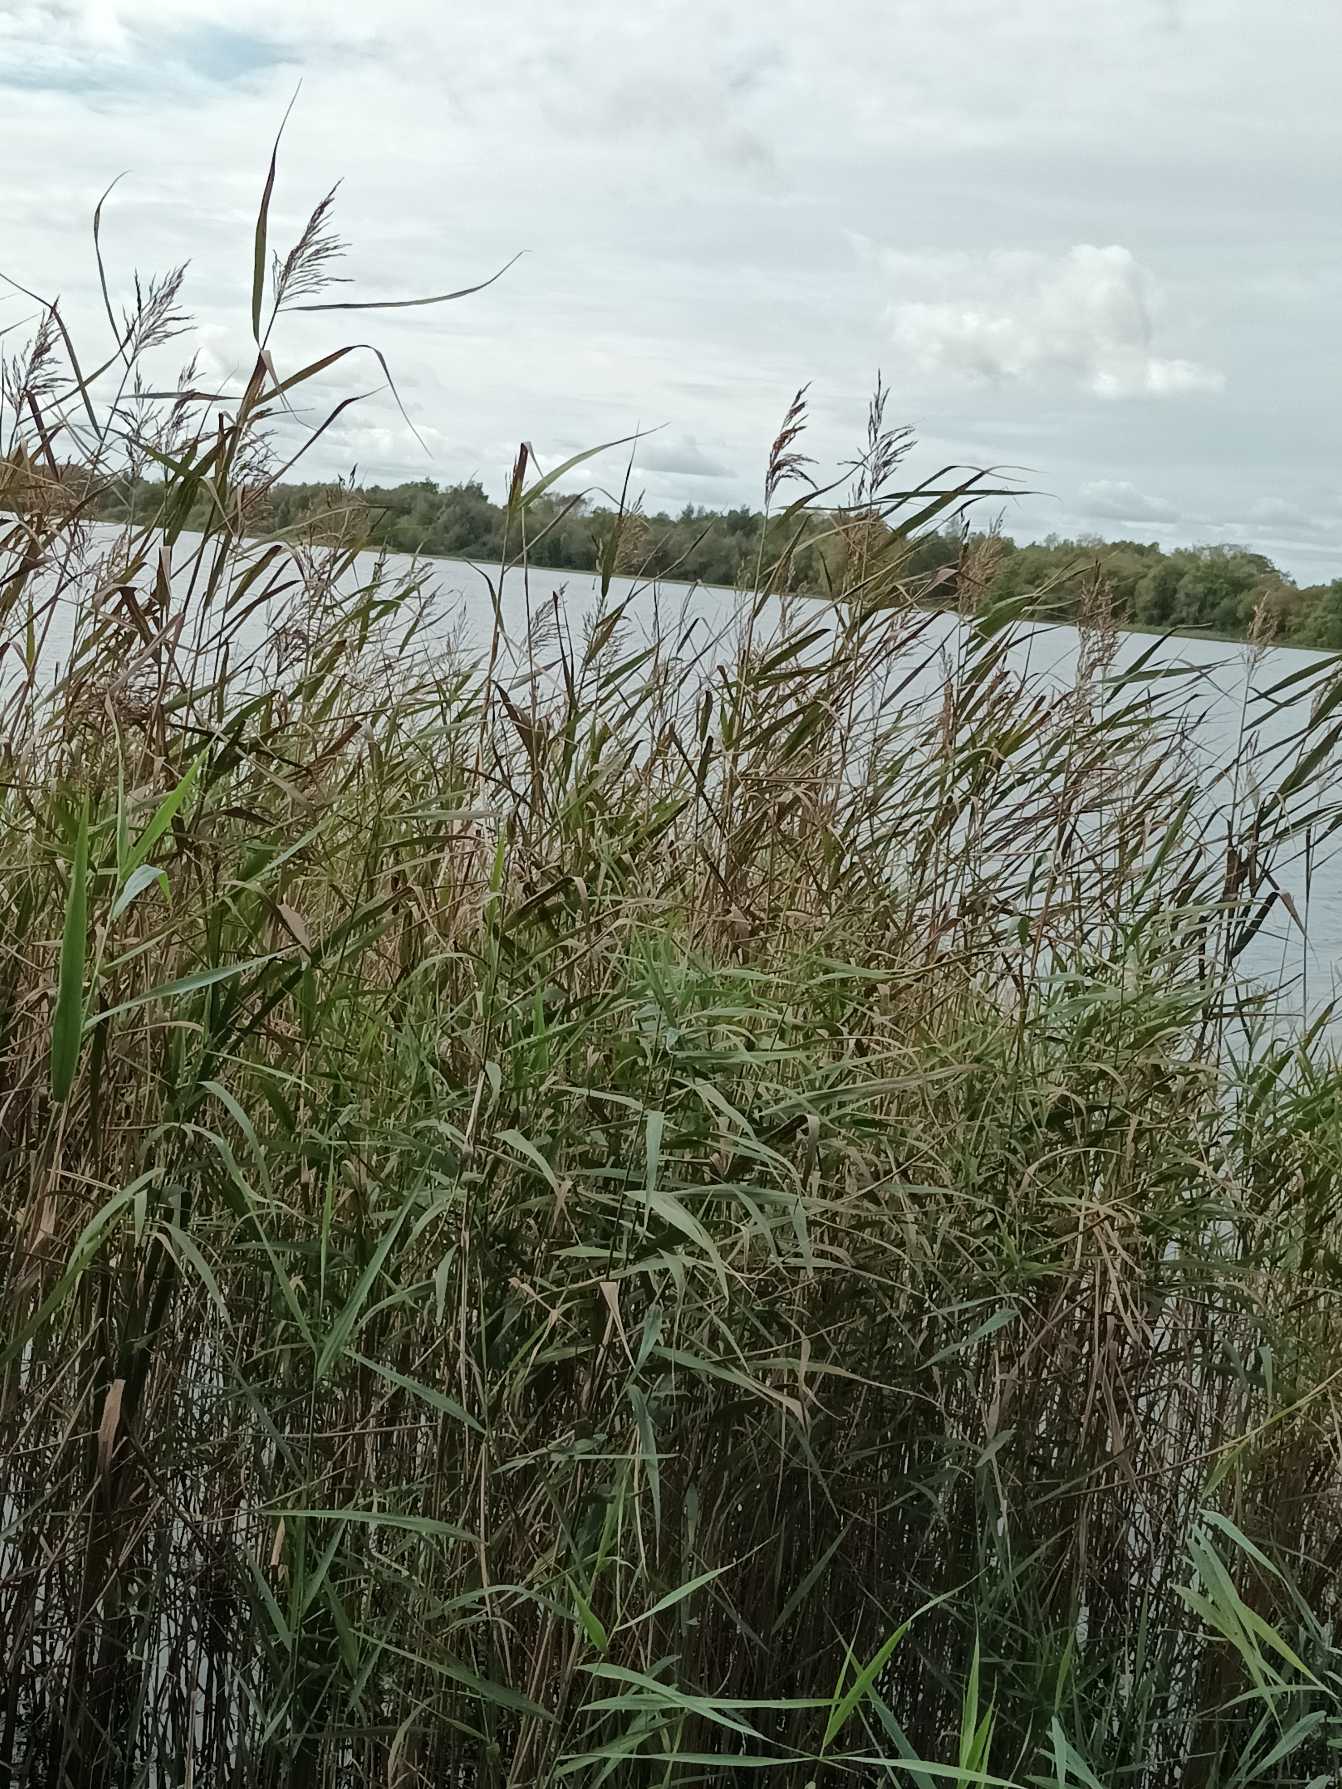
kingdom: Plantae
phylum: Tracheophyta
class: Liliopsida
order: Poales
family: Poaceae
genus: Phragmites
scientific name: Phragmites australis
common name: Tagrør
